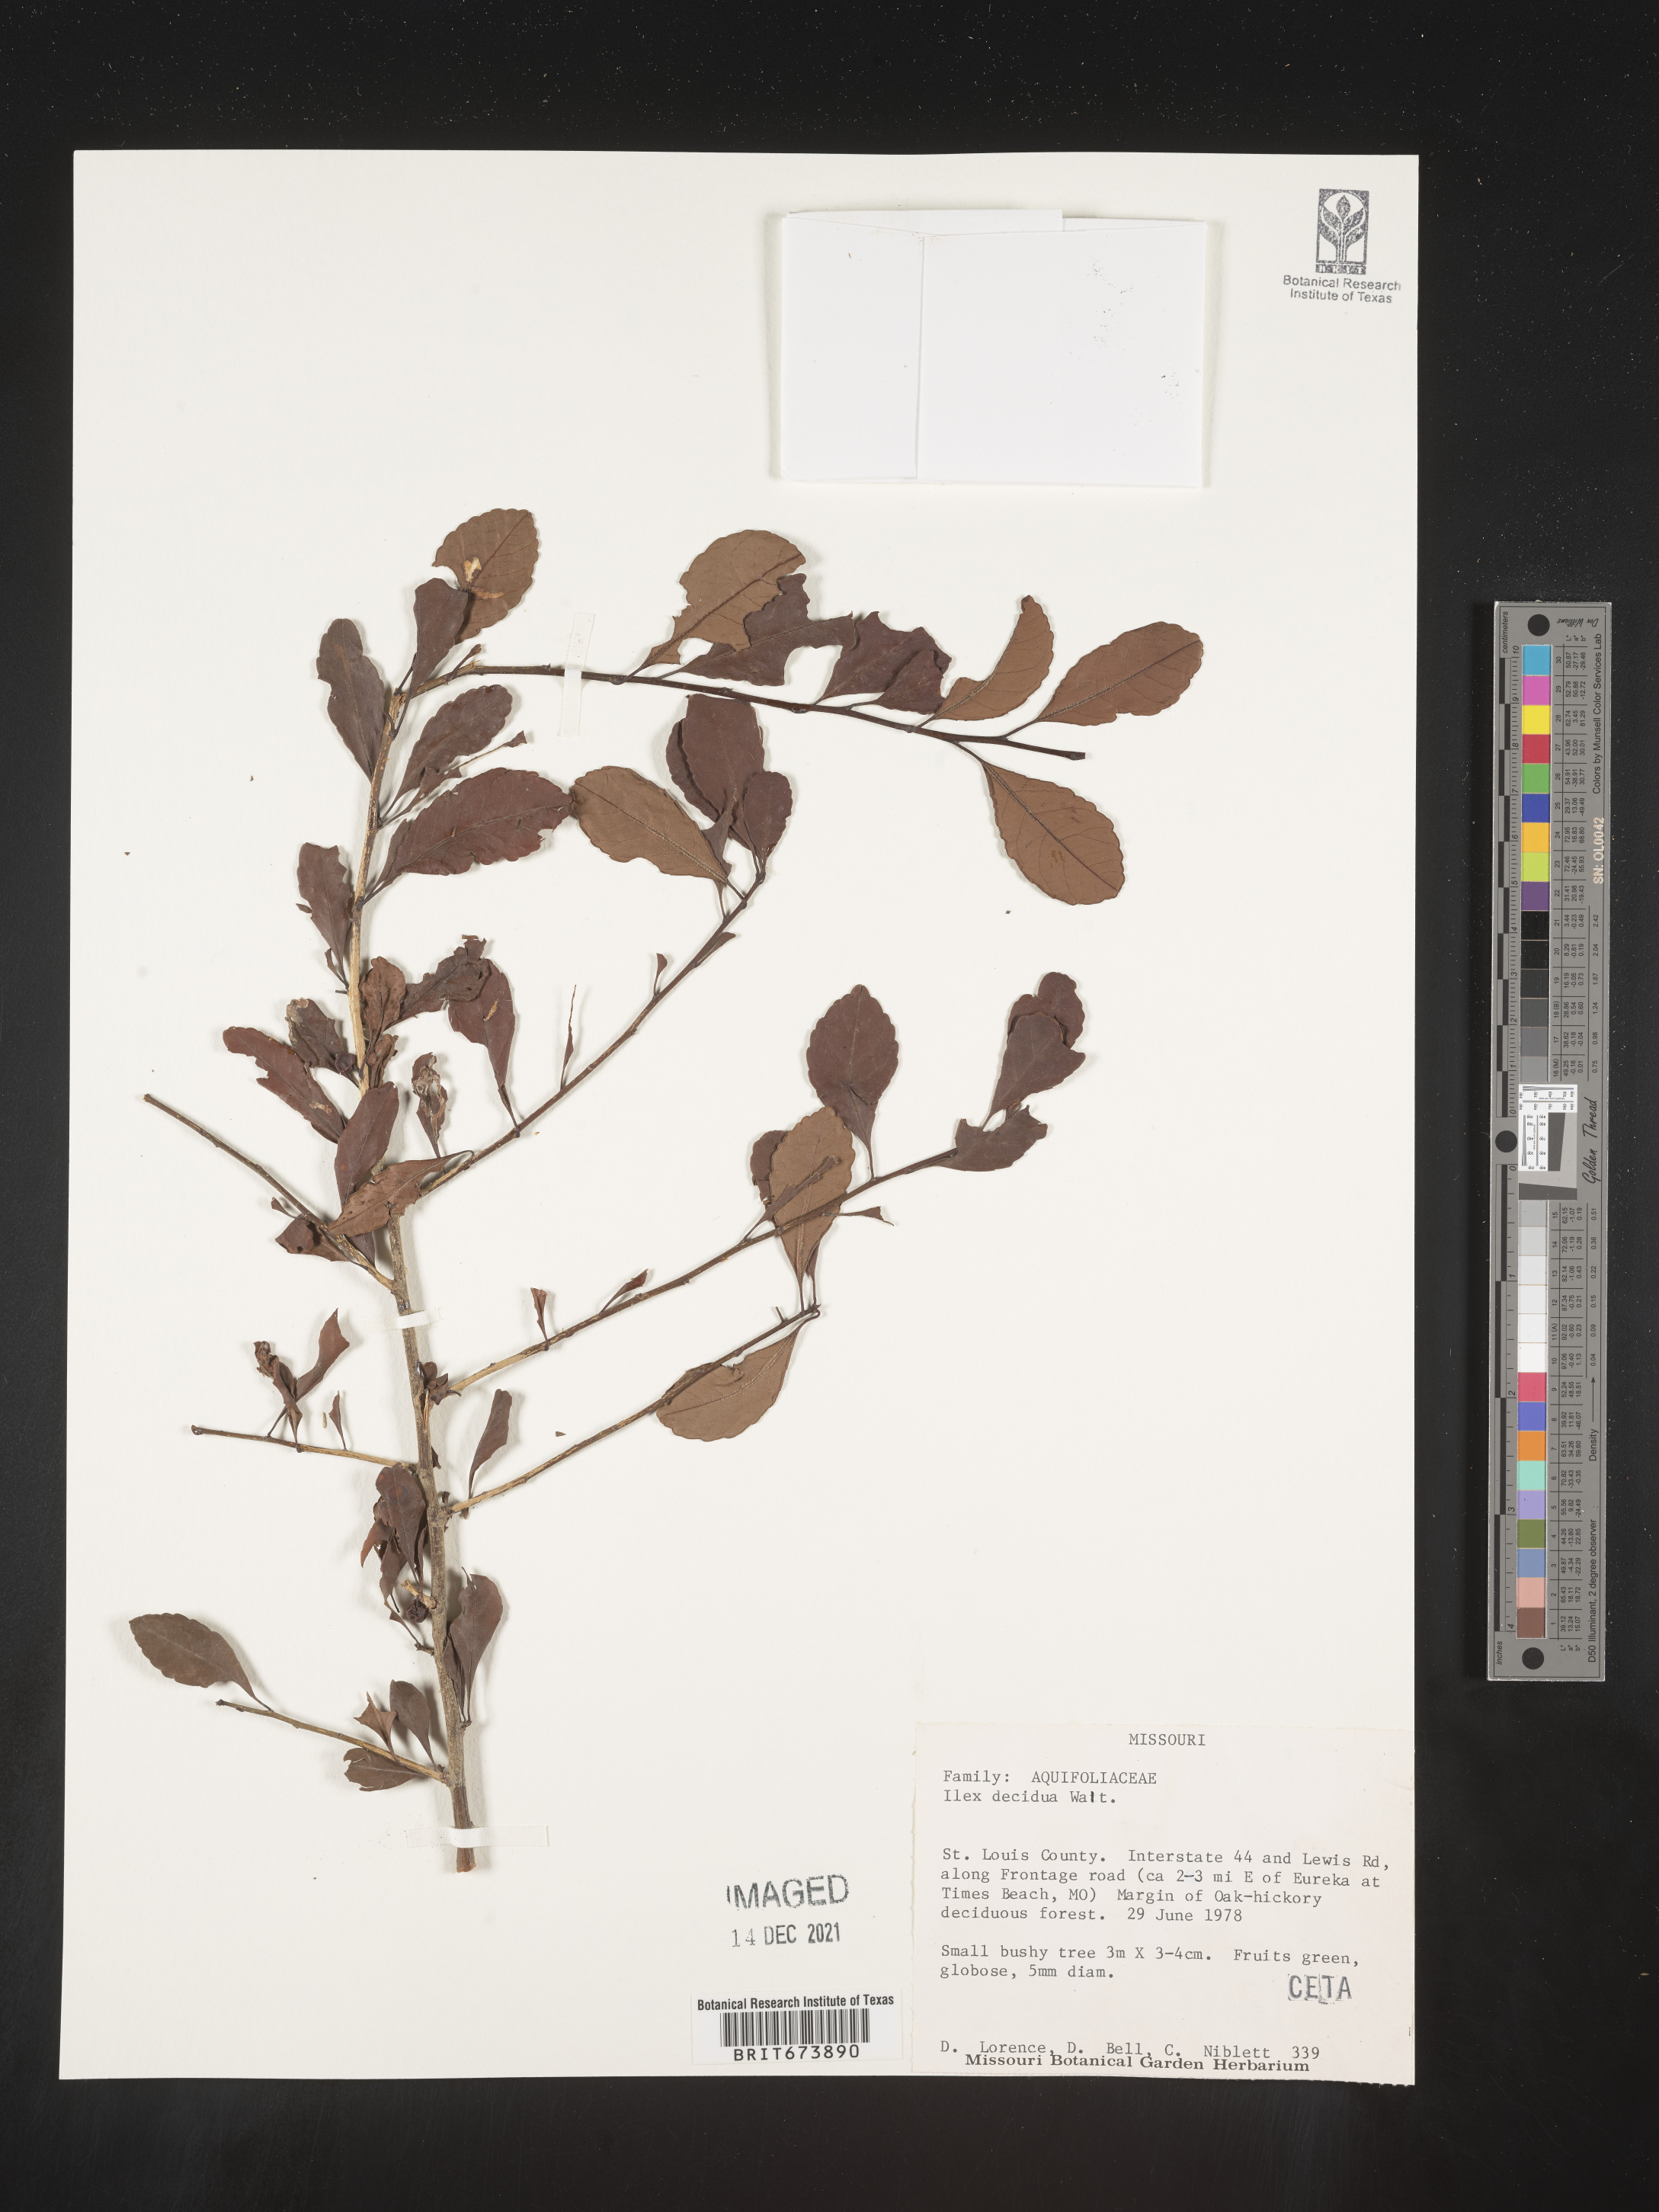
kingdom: Plantae
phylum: Tracheophyta
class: Magnoliopsida
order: Aquifoliales
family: Aquifoliaceae
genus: Ilex
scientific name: Ilex decidua
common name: Possum-haw
